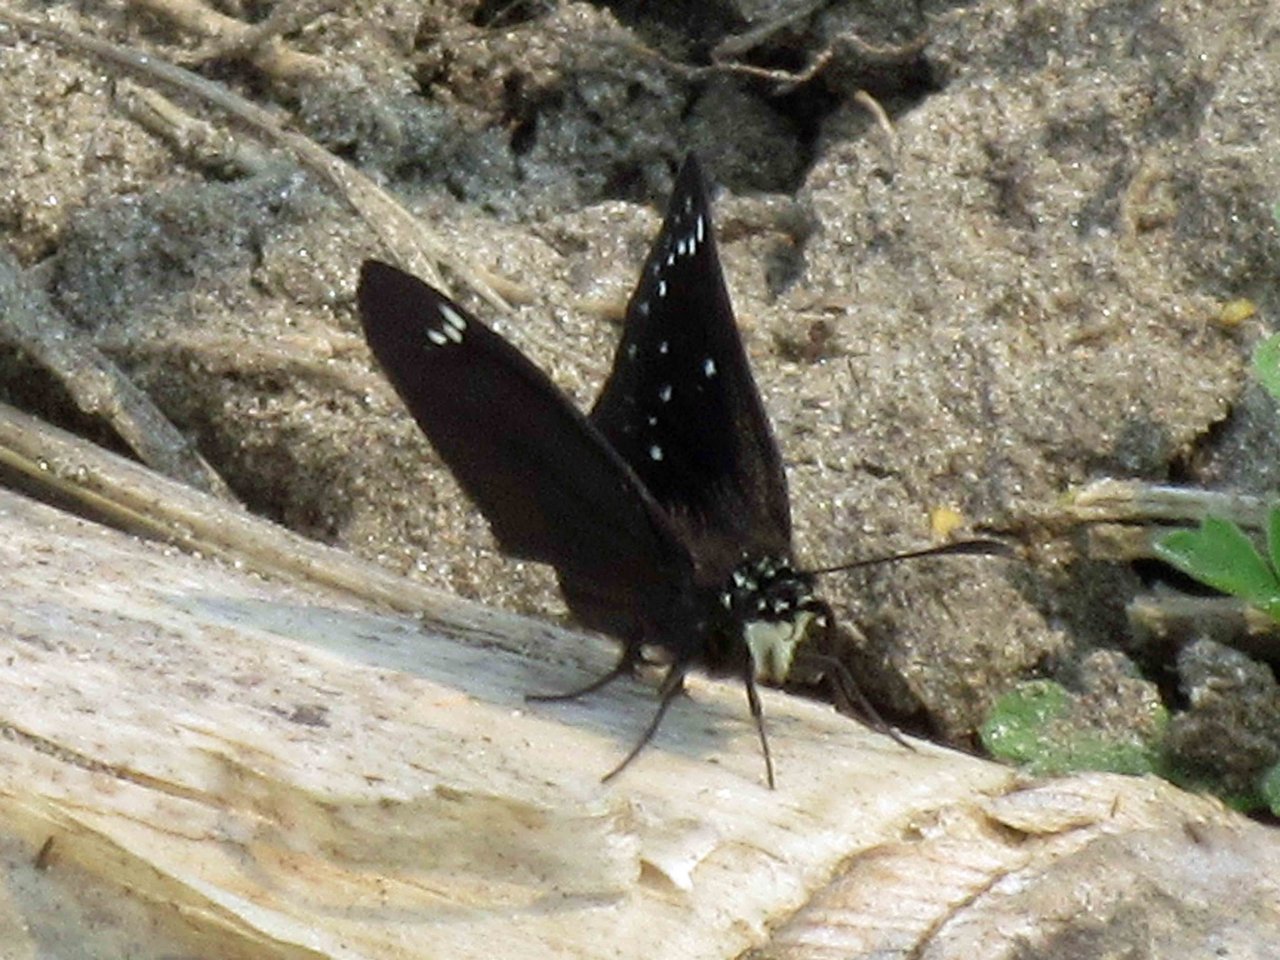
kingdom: Animalia
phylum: Arthropoda
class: Insecta
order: Lepidoptera
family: Hesperiidae
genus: Pholisora
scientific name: Pholisora catullus
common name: Common Sootywing
